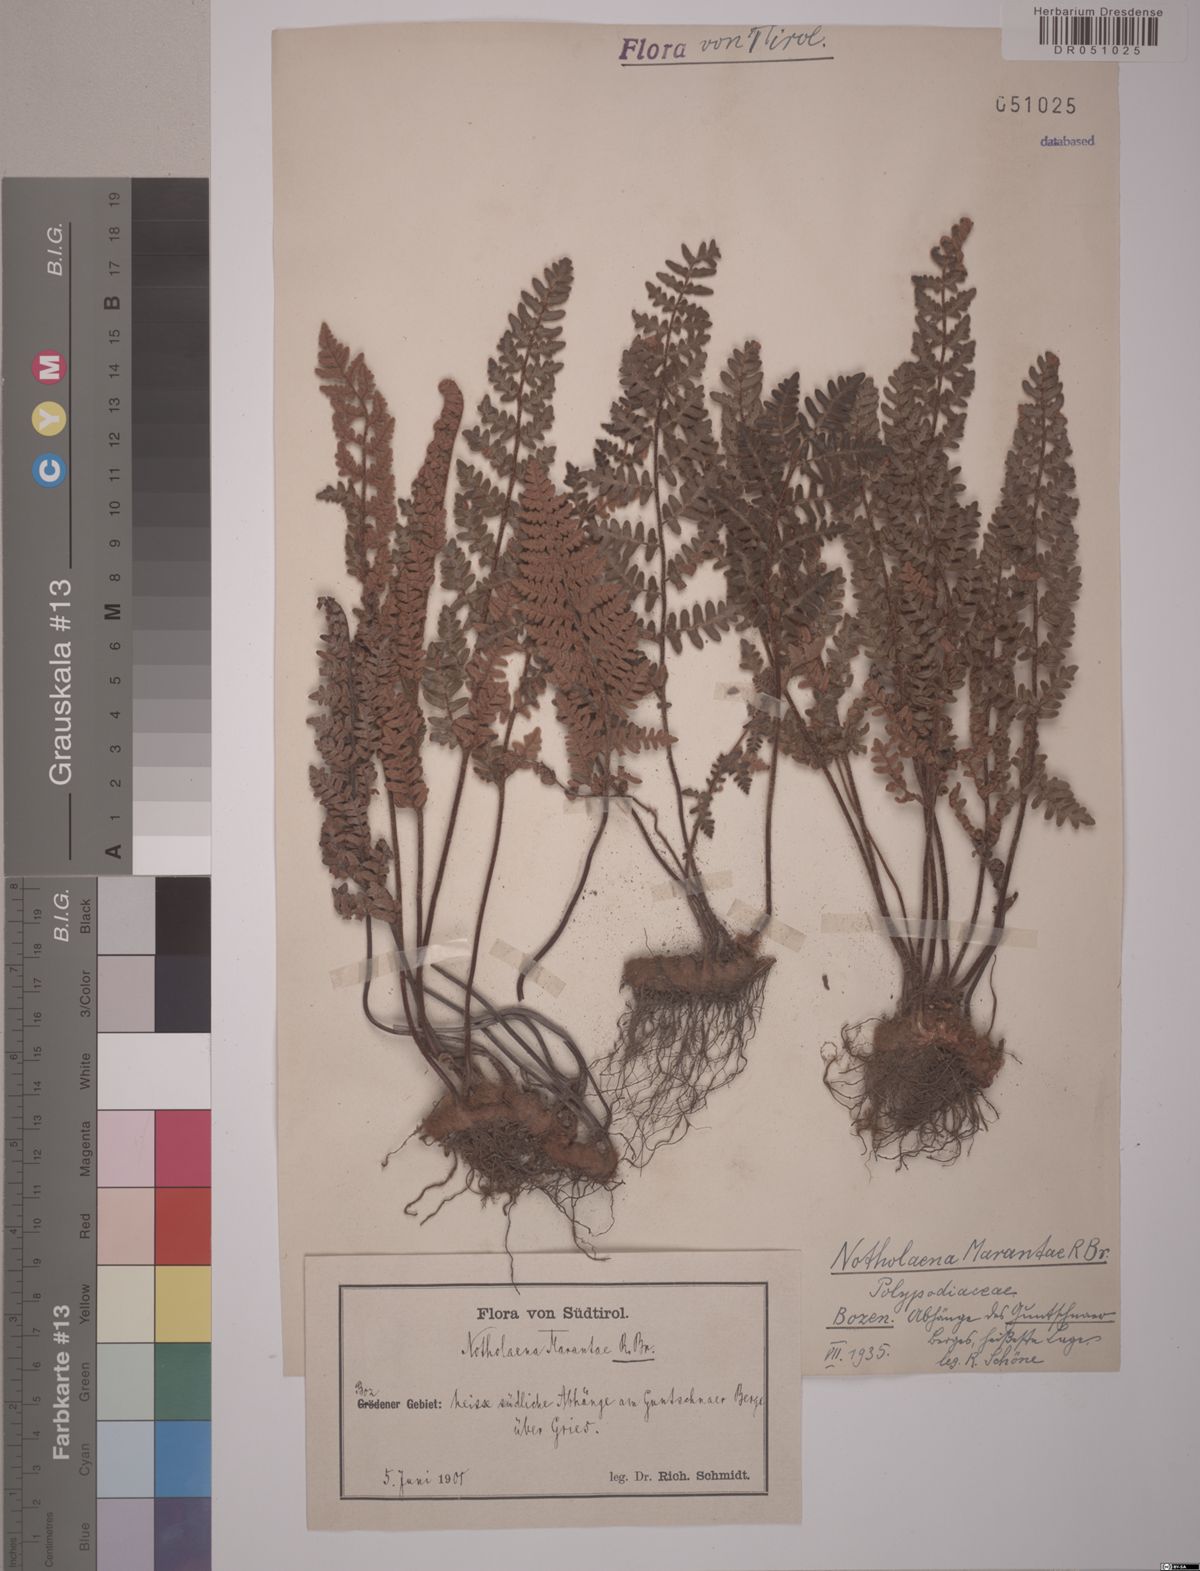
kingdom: Plantae
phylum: Tracheophyta
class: Polypodiopsida
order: Polypodiales
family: Pteridaceae
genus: Paragymnopteris
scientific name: Paragymnopteris marantae
